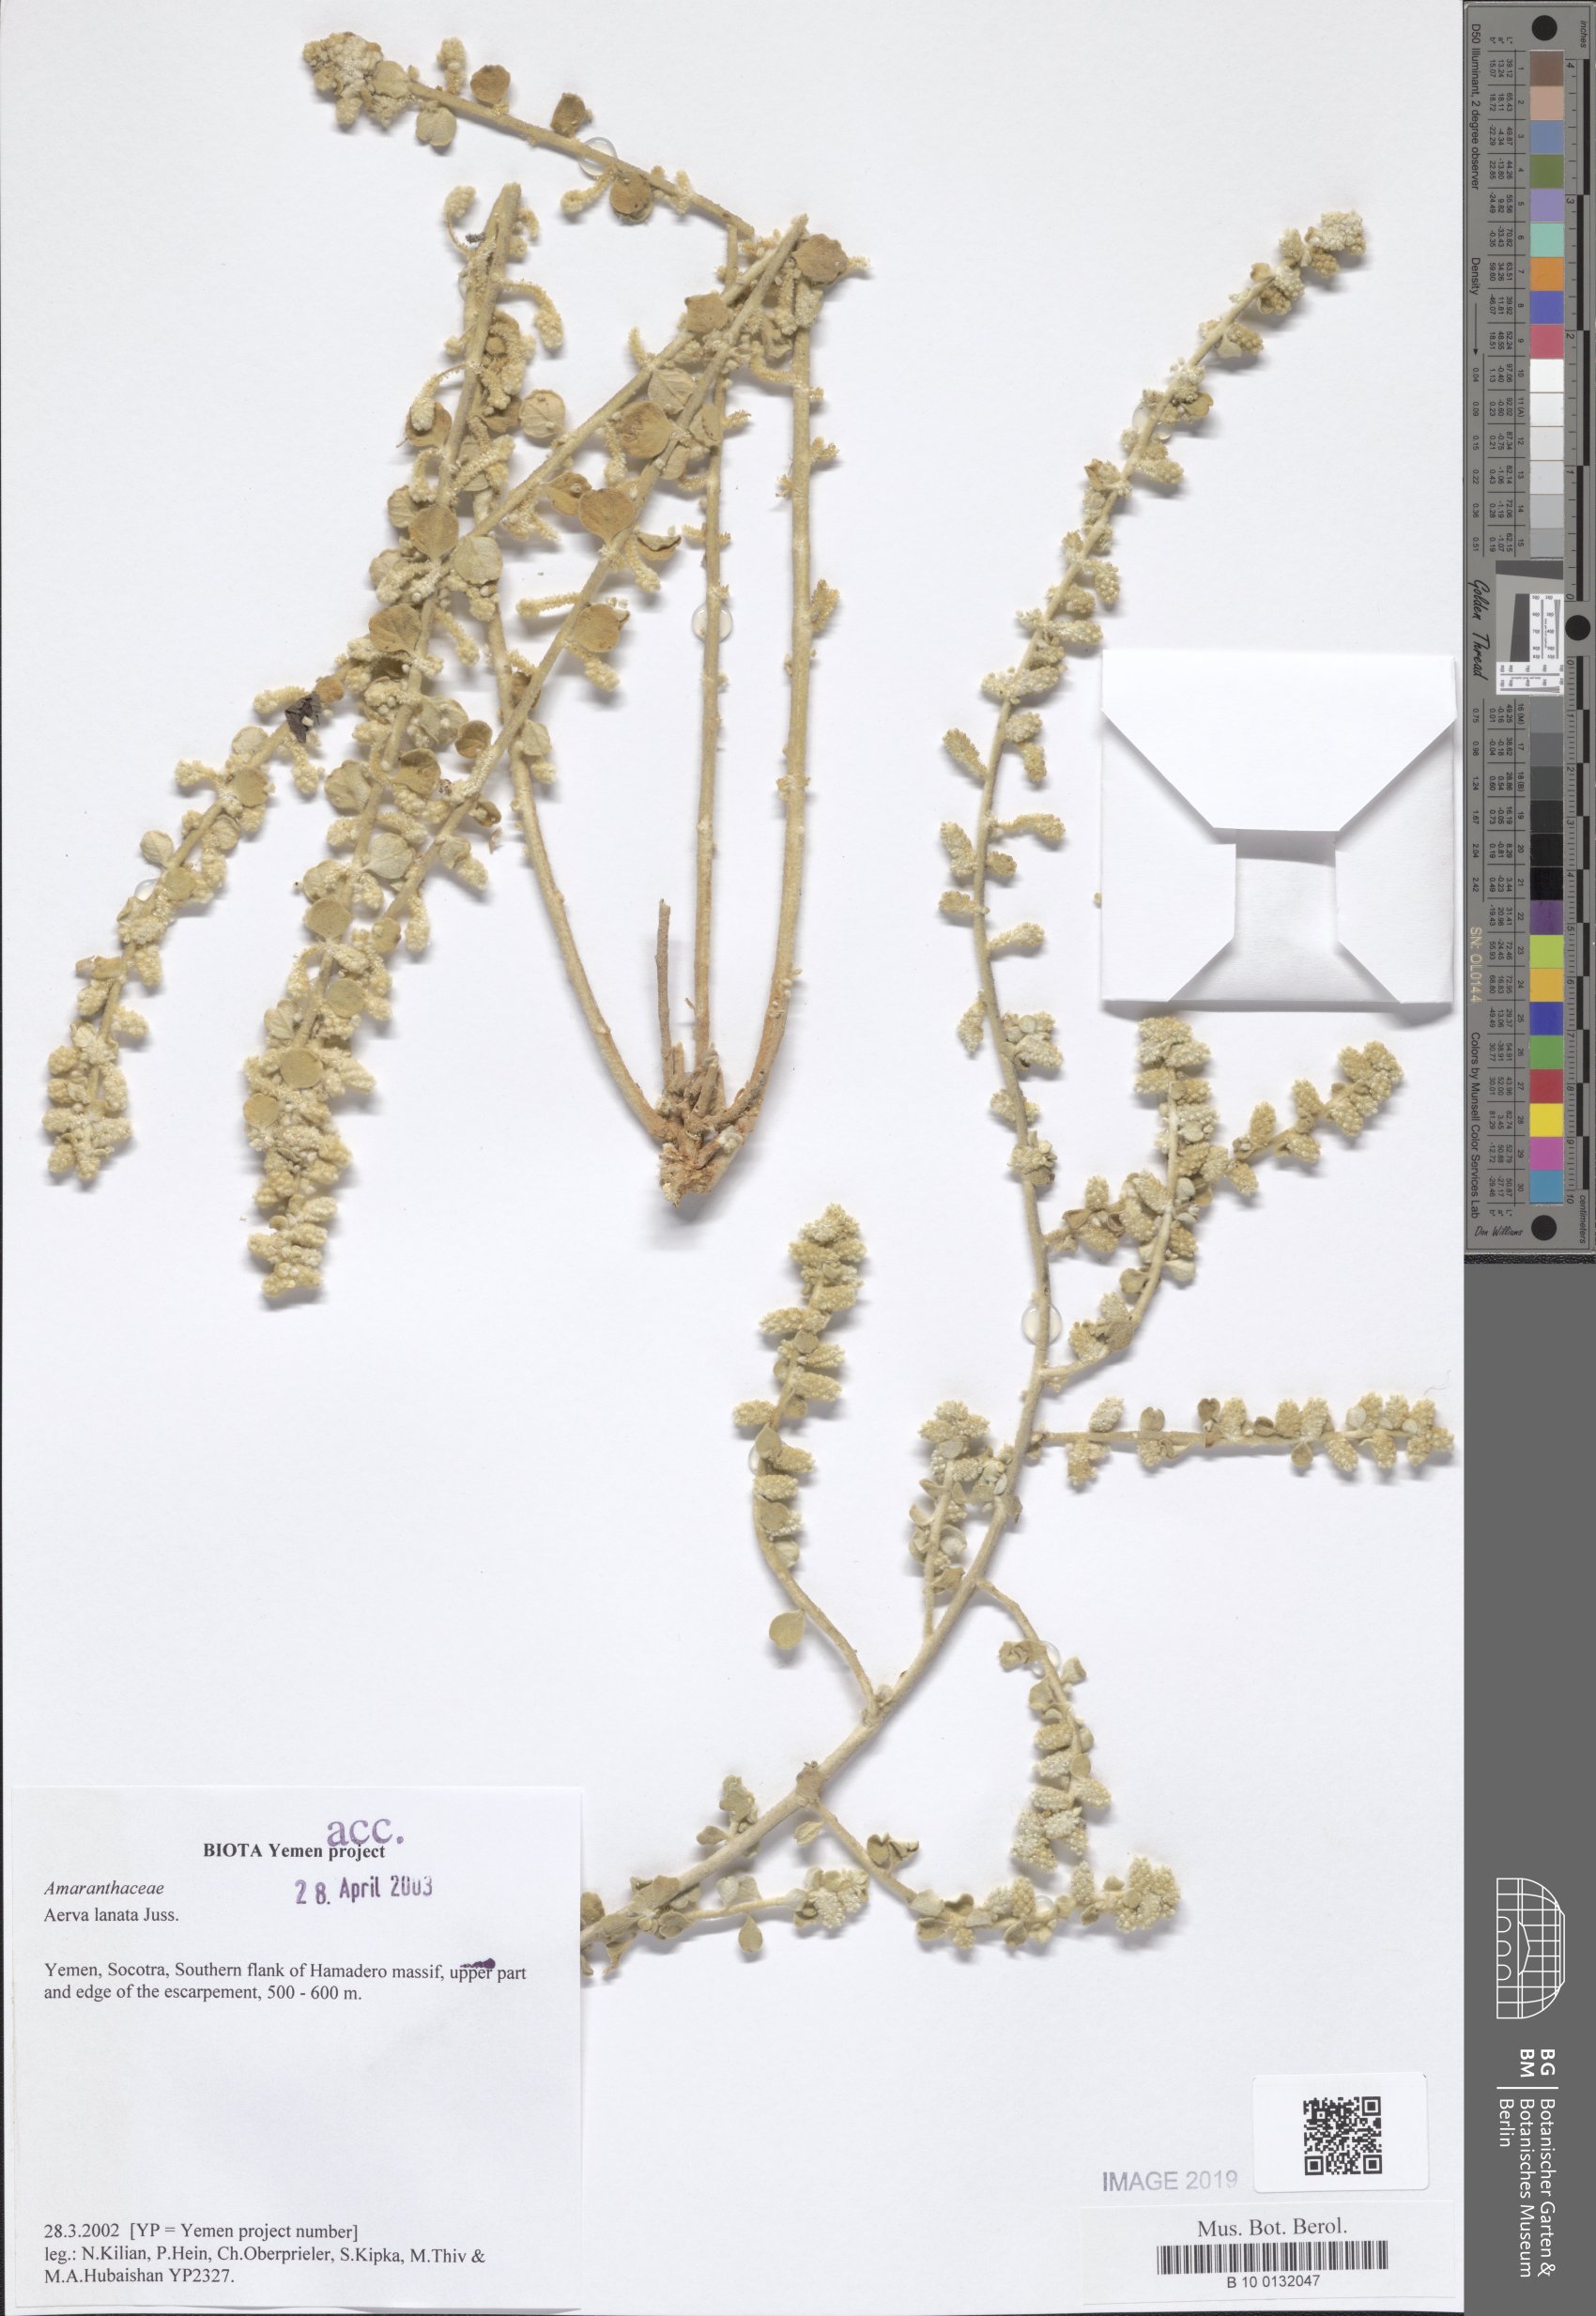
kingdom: Plantae
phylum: Tracheophyta
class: Magnoliopsida
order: Caryophyllales
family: Amaranthaceae
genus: Ouret
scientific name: Ouret lanata
